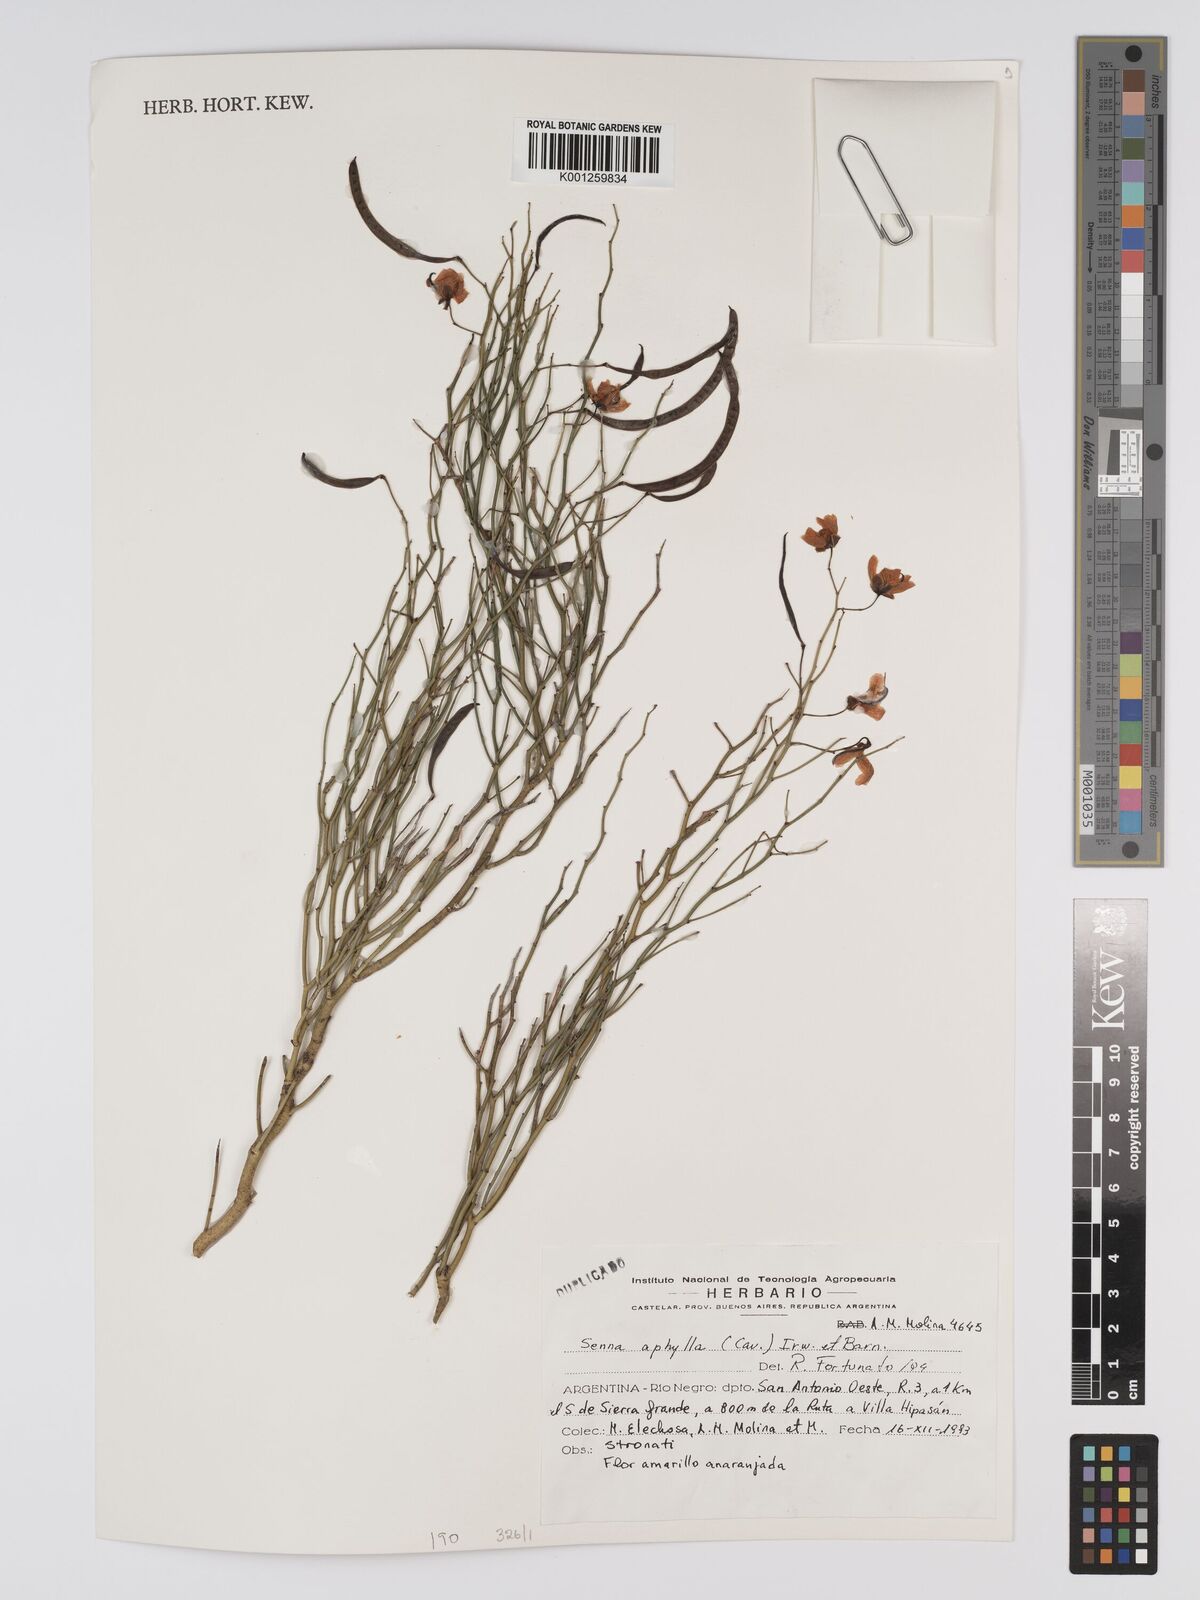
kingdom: Plantae
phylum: Tracheophyta
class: Magnoliopsida
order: Fabales
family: Fabaceae
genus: Senna
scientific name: Senna aphylla
